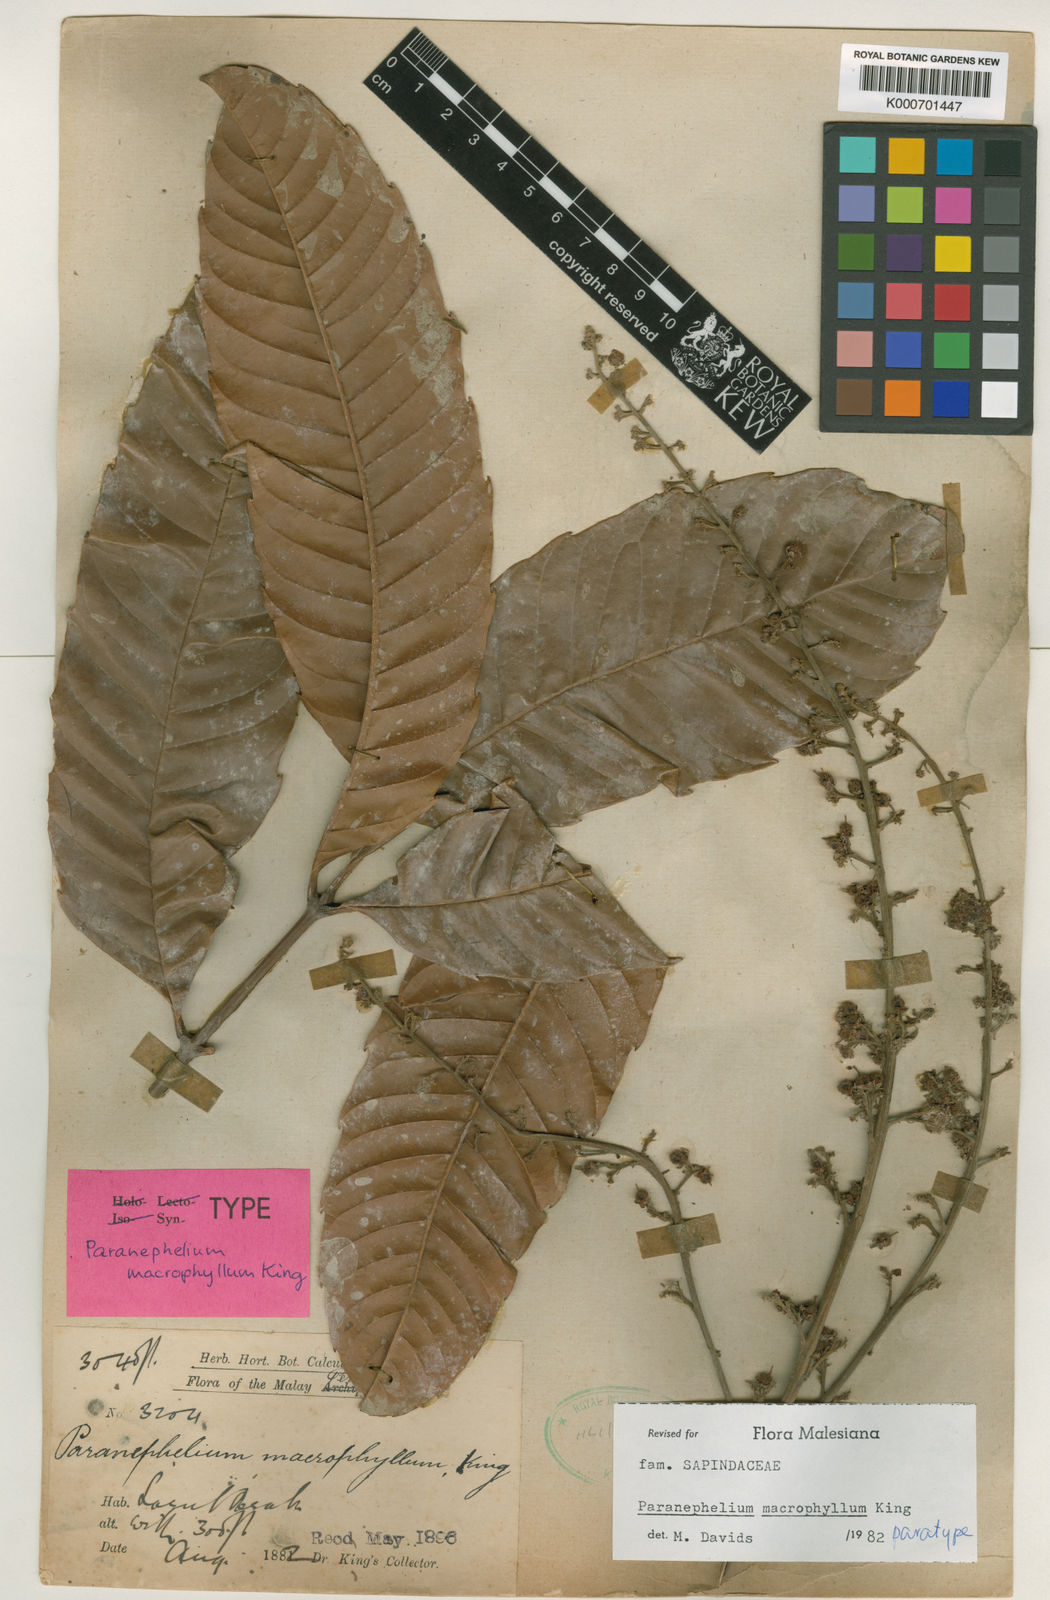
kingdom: Plantae
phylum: Tracheophyta
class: Magnoliopsida
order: Sapindales
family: Sapindaceae
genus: Paranephelium
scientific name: Paranephelium macrophyllum
